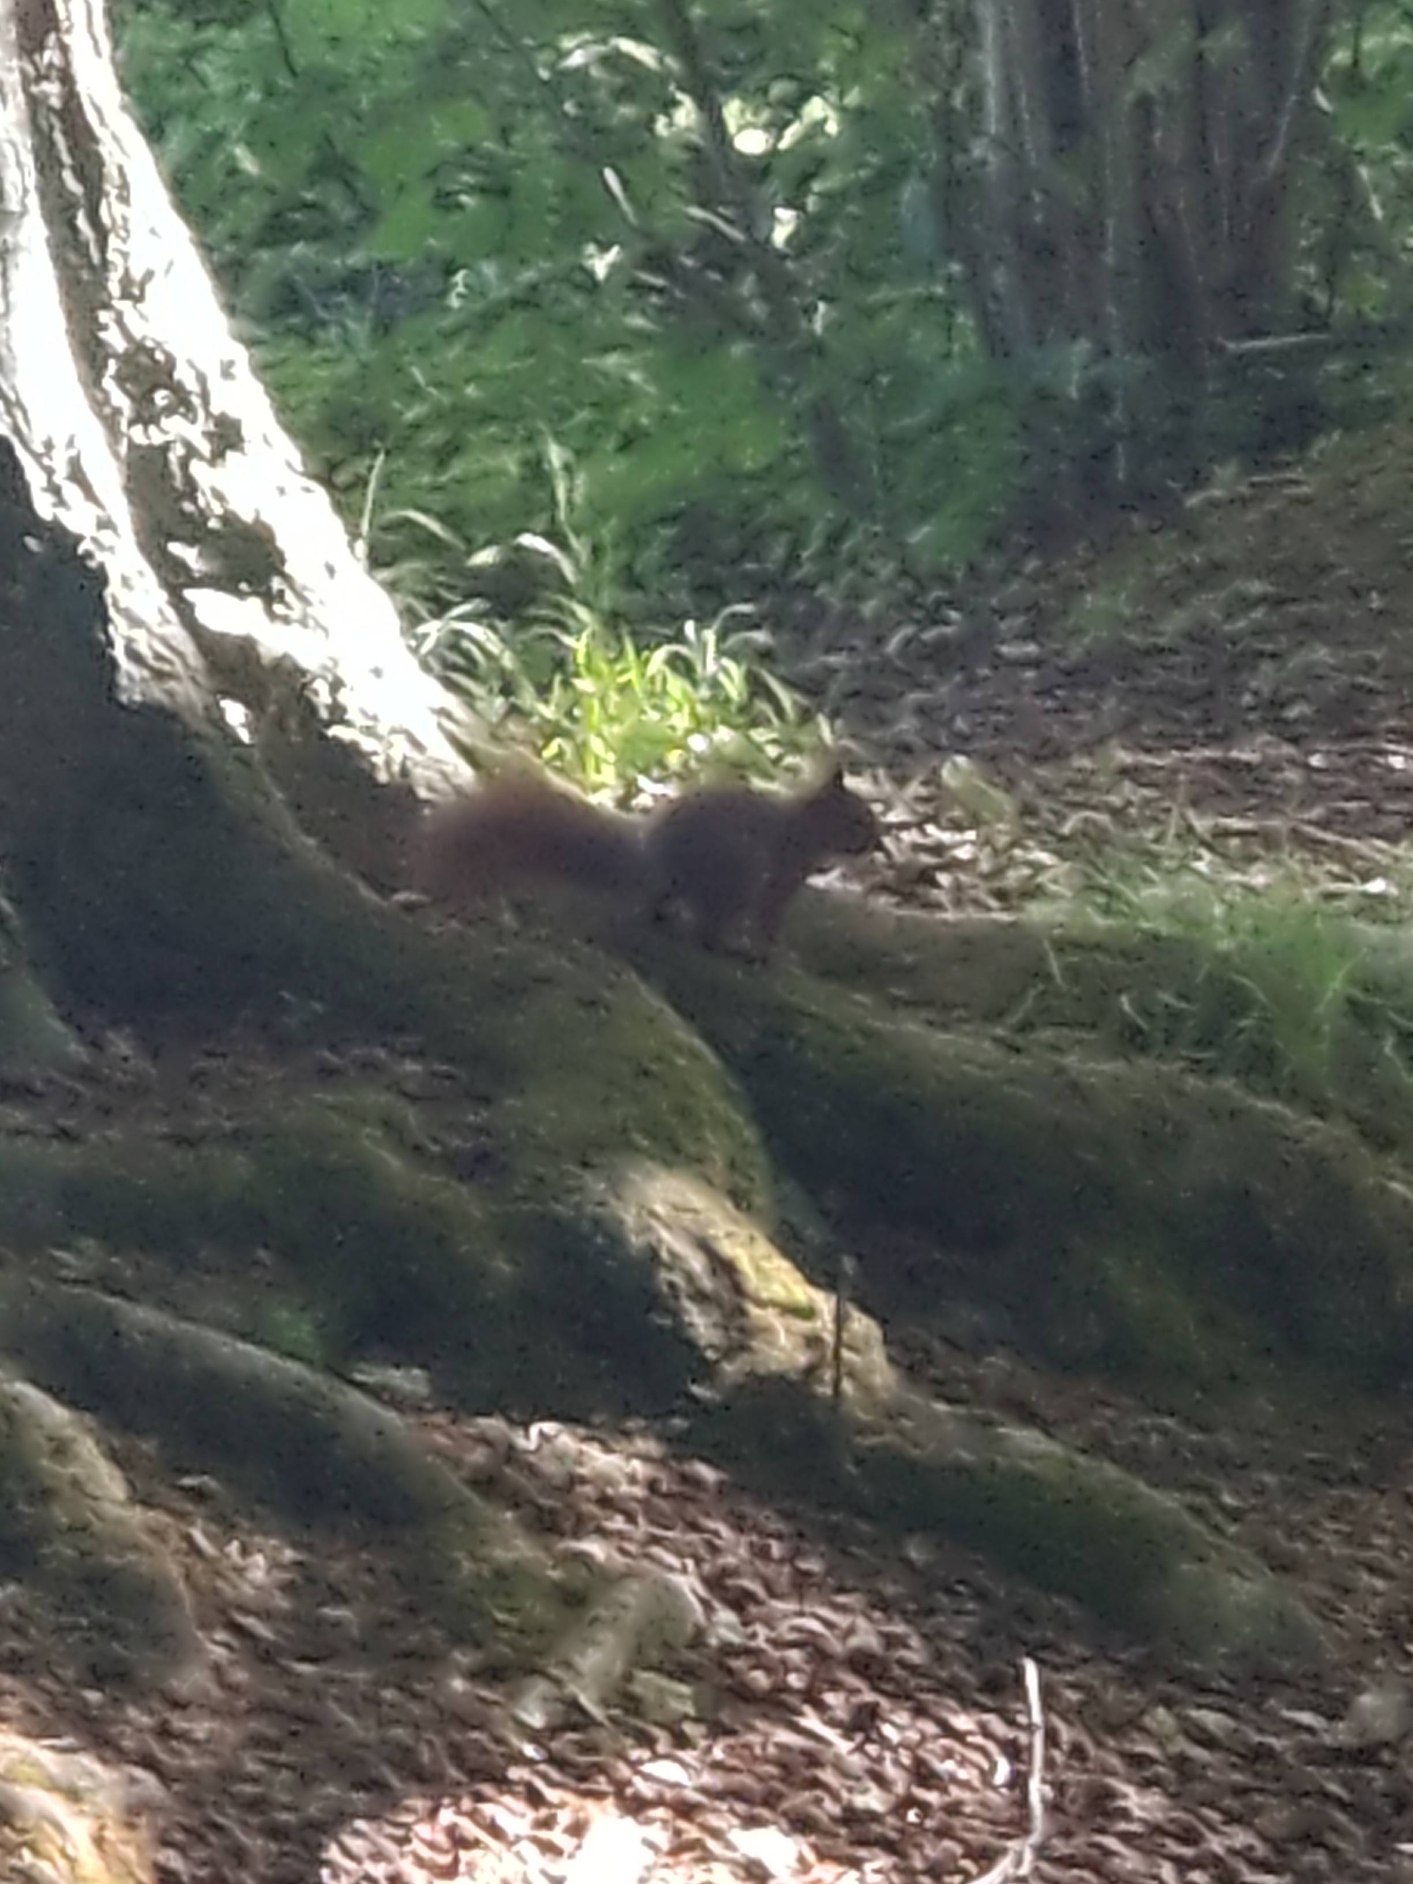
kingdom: Animalia
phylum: Chordata
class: Mammalia
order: Rodentia
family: Sciuridae
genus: Sciurus
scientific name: Sciurus vulgaris
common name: Egern
